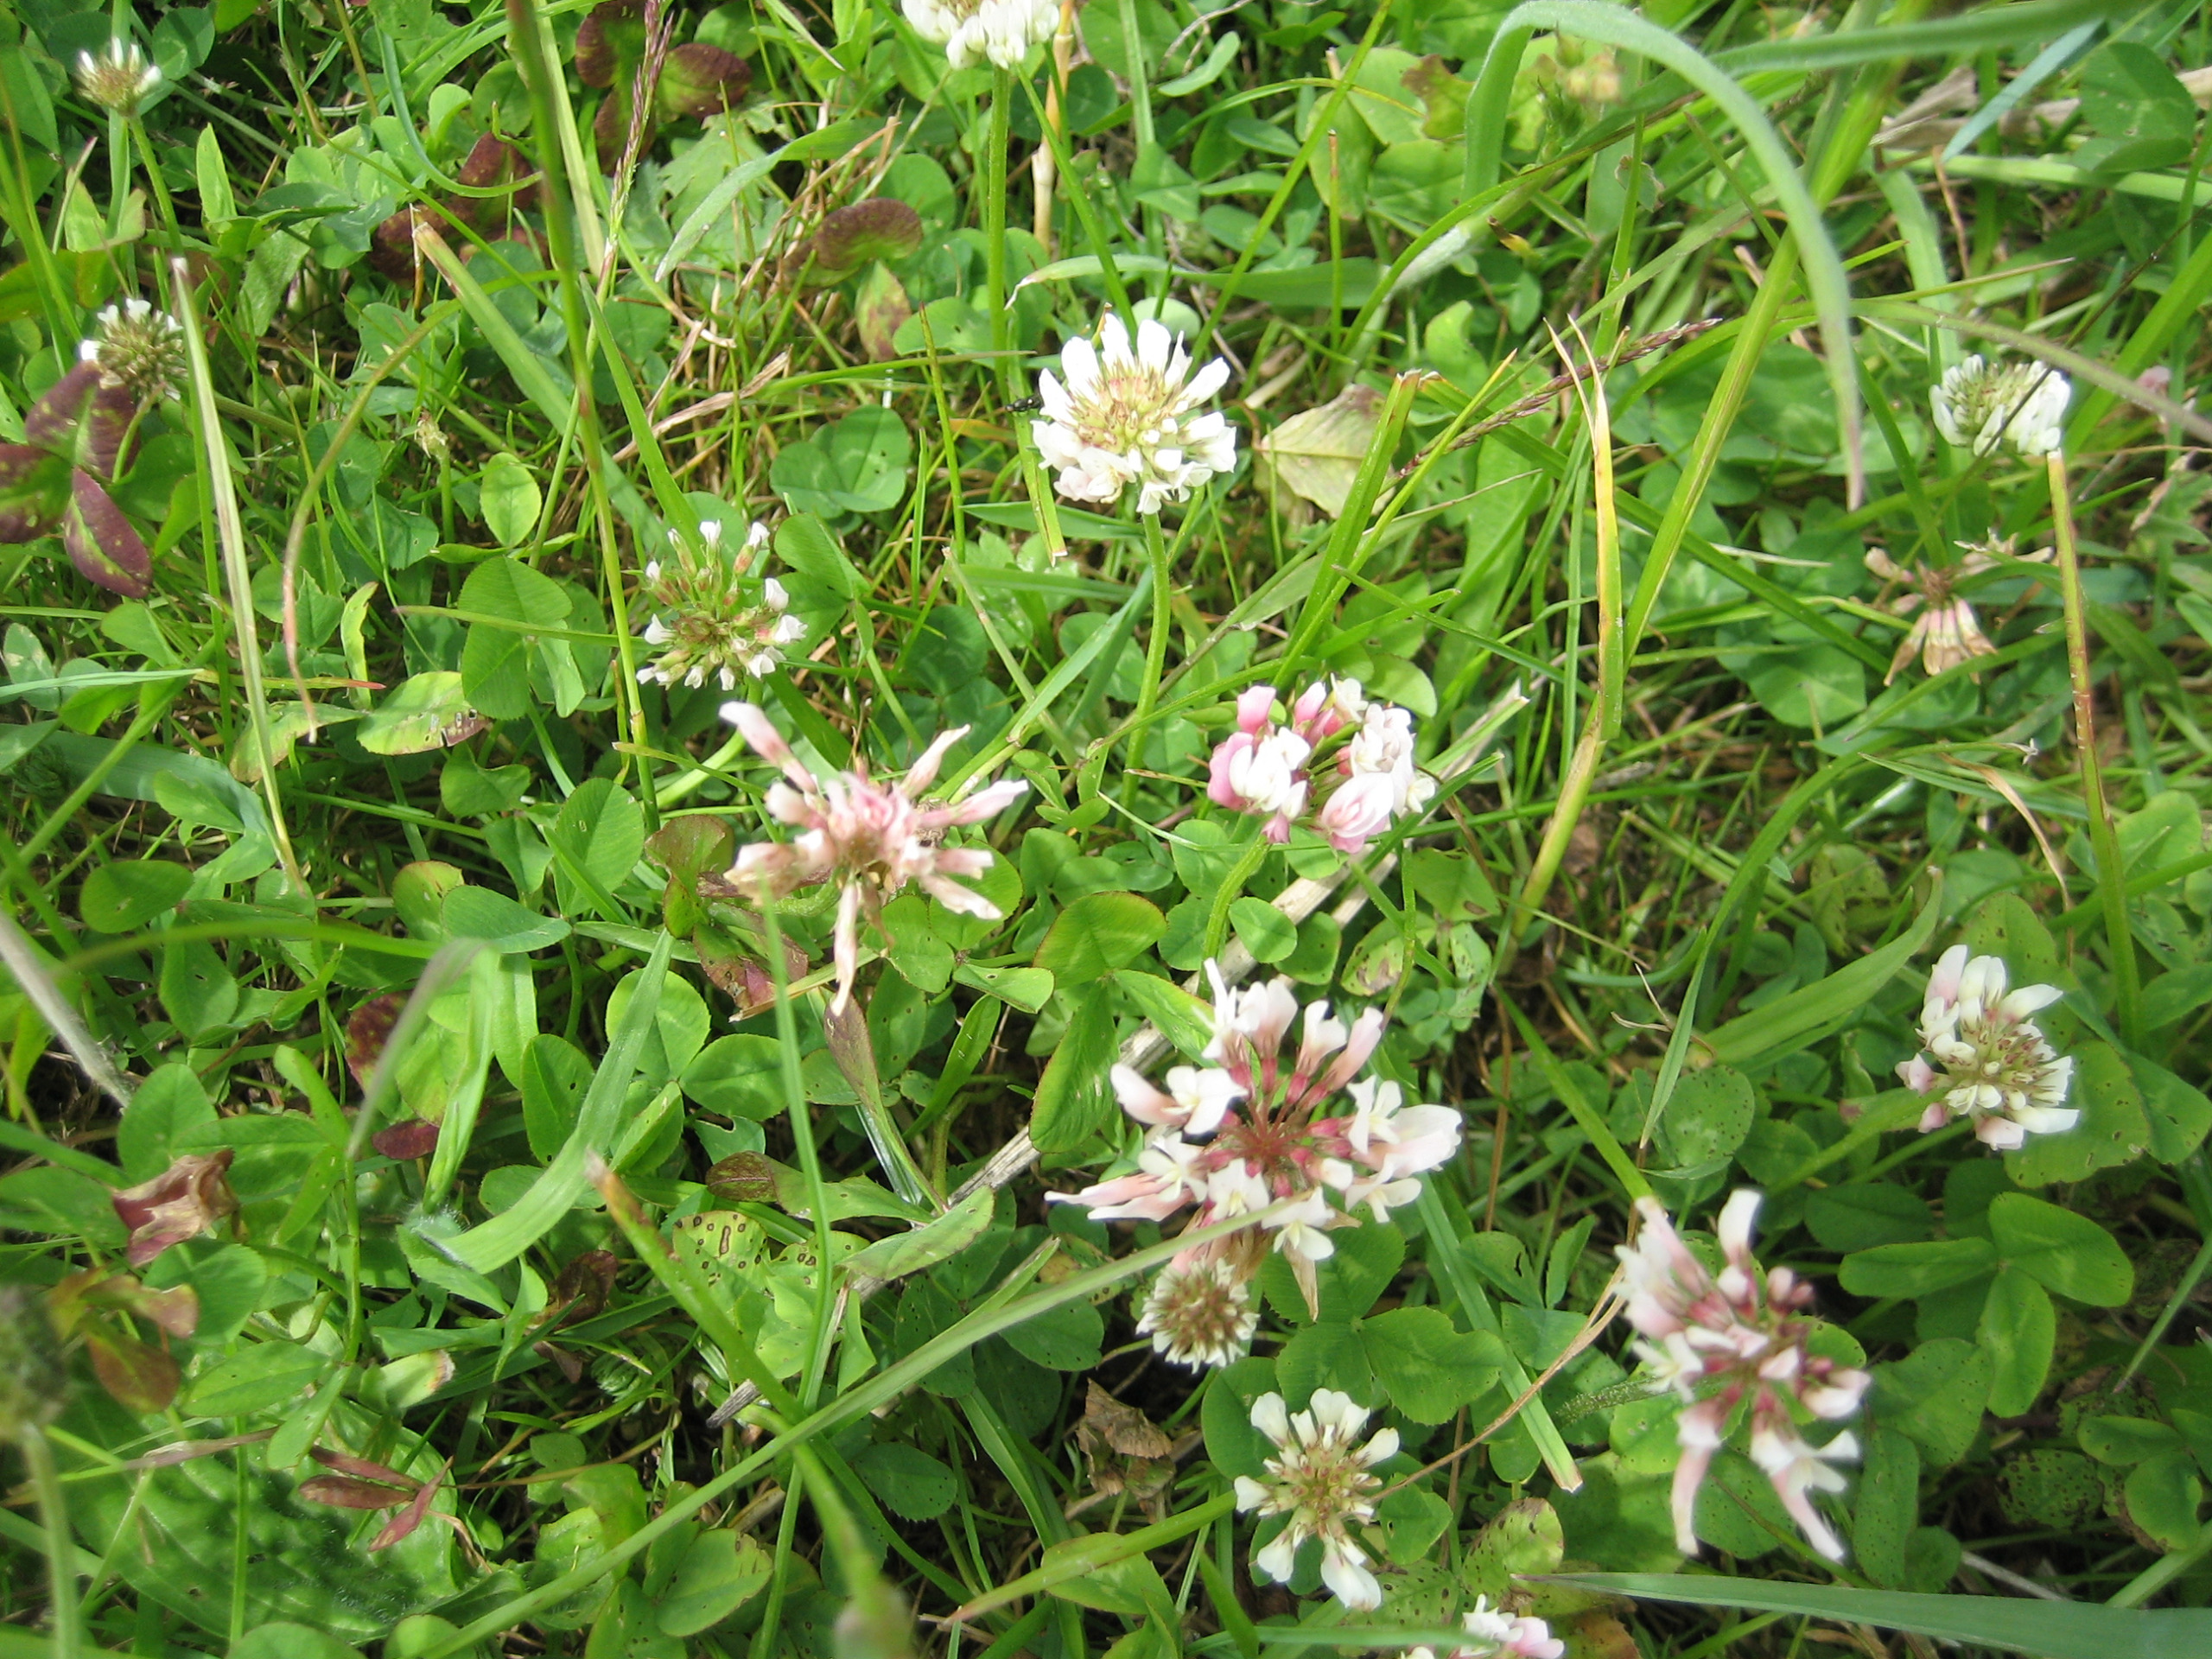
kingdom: Plantae
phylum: Tracheophyta
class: Magnoliopsida
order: Fabales
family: Fabaceae
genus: Trifolium
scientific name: Trifolium repens
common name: Hvid-kløver
